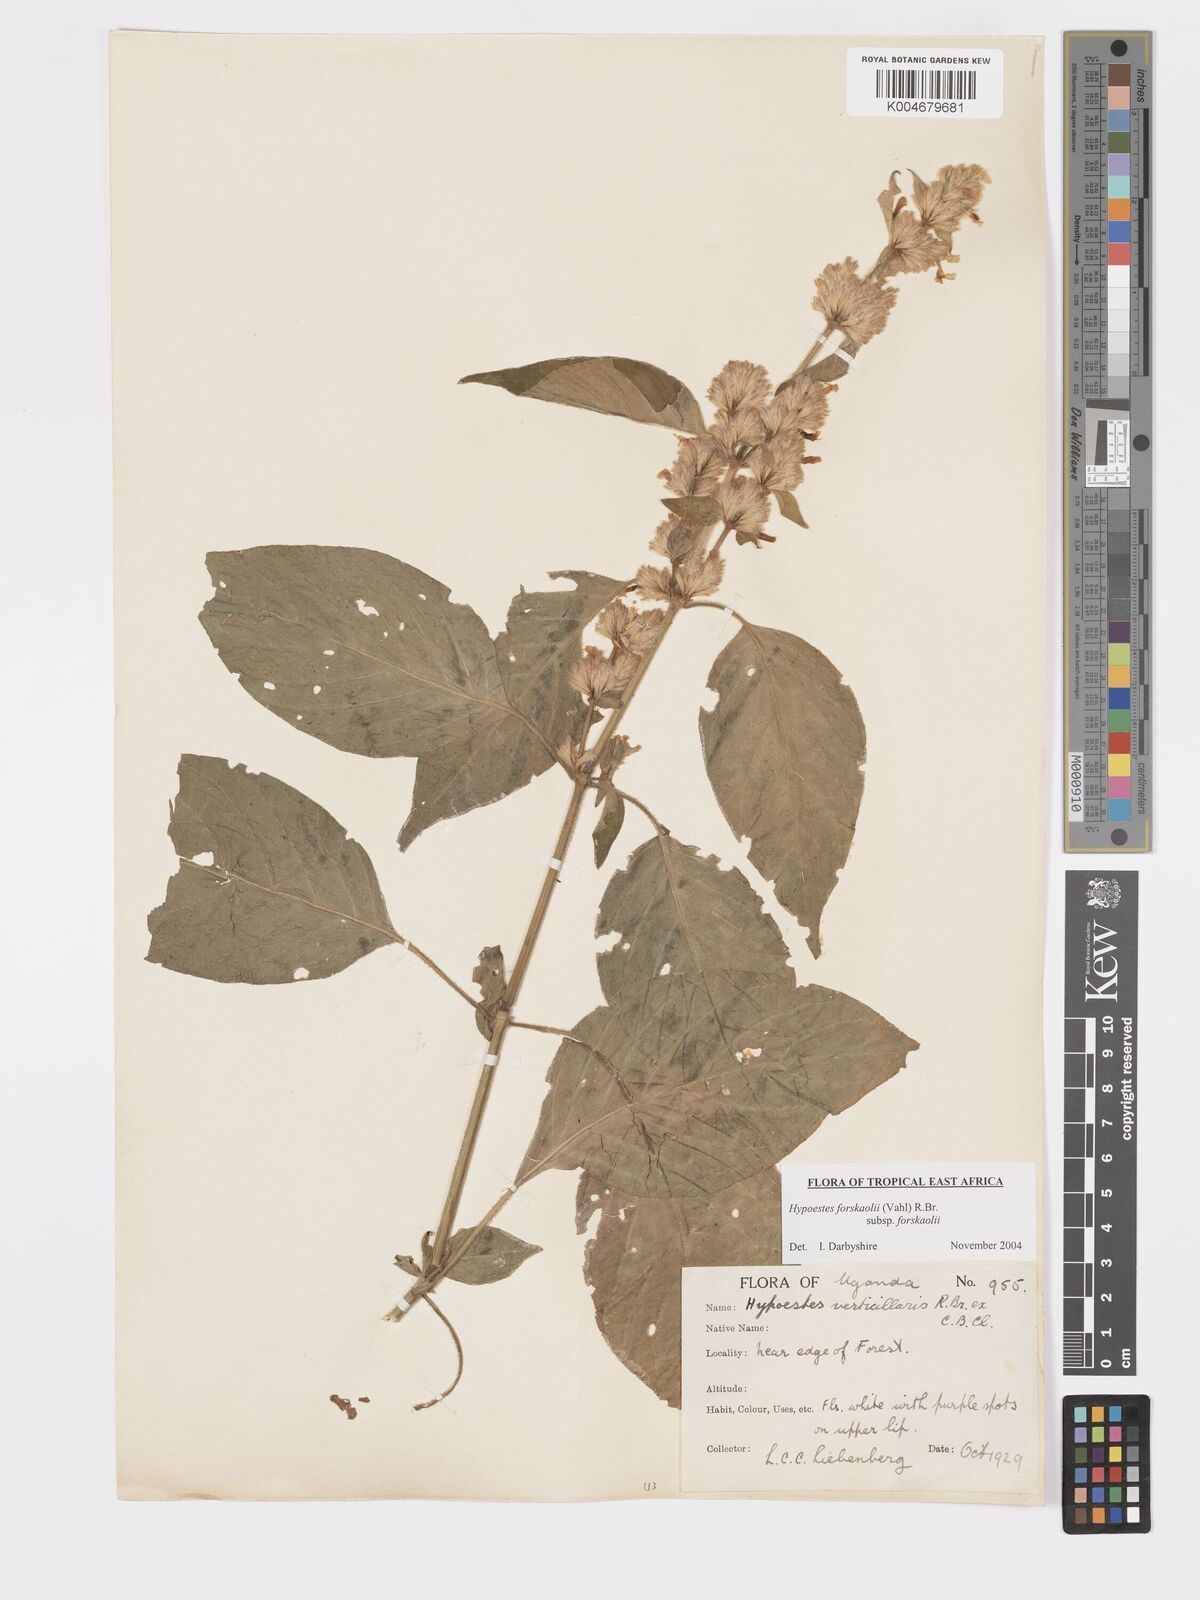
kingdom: Plantae
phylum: Tracheophyta
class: Magnoliopsida
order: Lamiales
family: Acanthaceae
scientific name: Acanthaceae
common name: Acanthaceae
